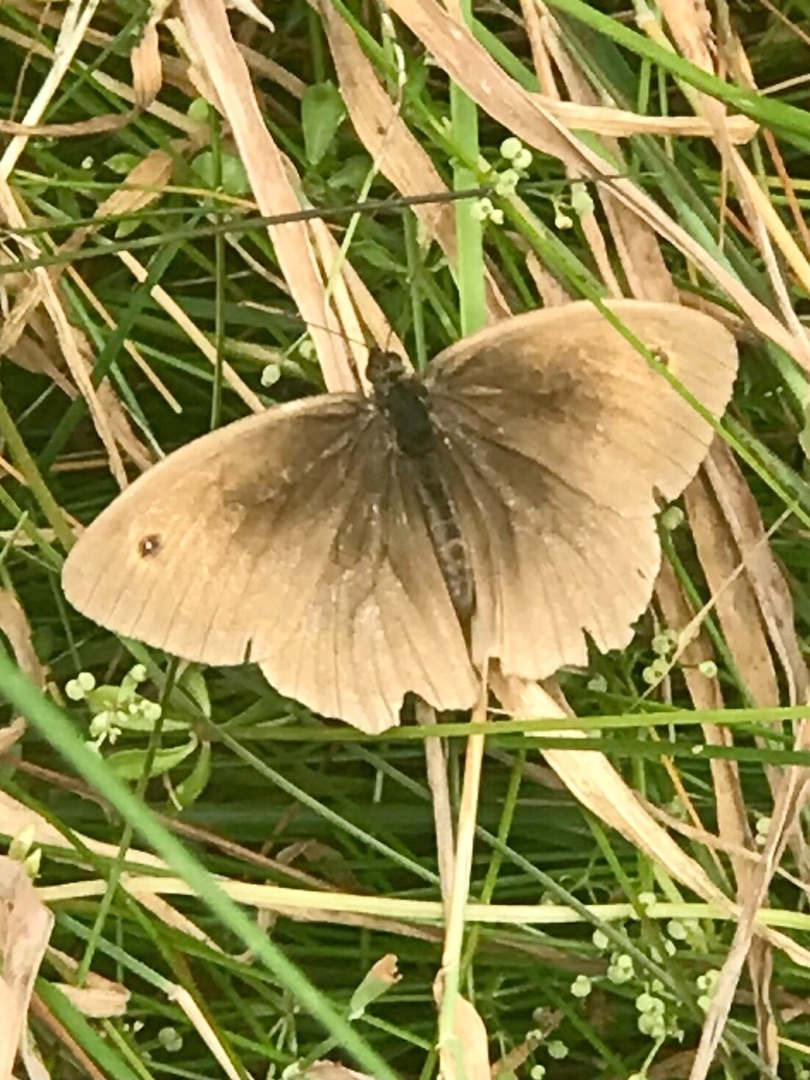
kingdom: Animalia
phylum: Arthropoda
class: Insecta
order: Lepidoptera
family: Nymphalidae
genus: Maniola
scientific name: Maniola jurtina
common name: Græsrandøje
